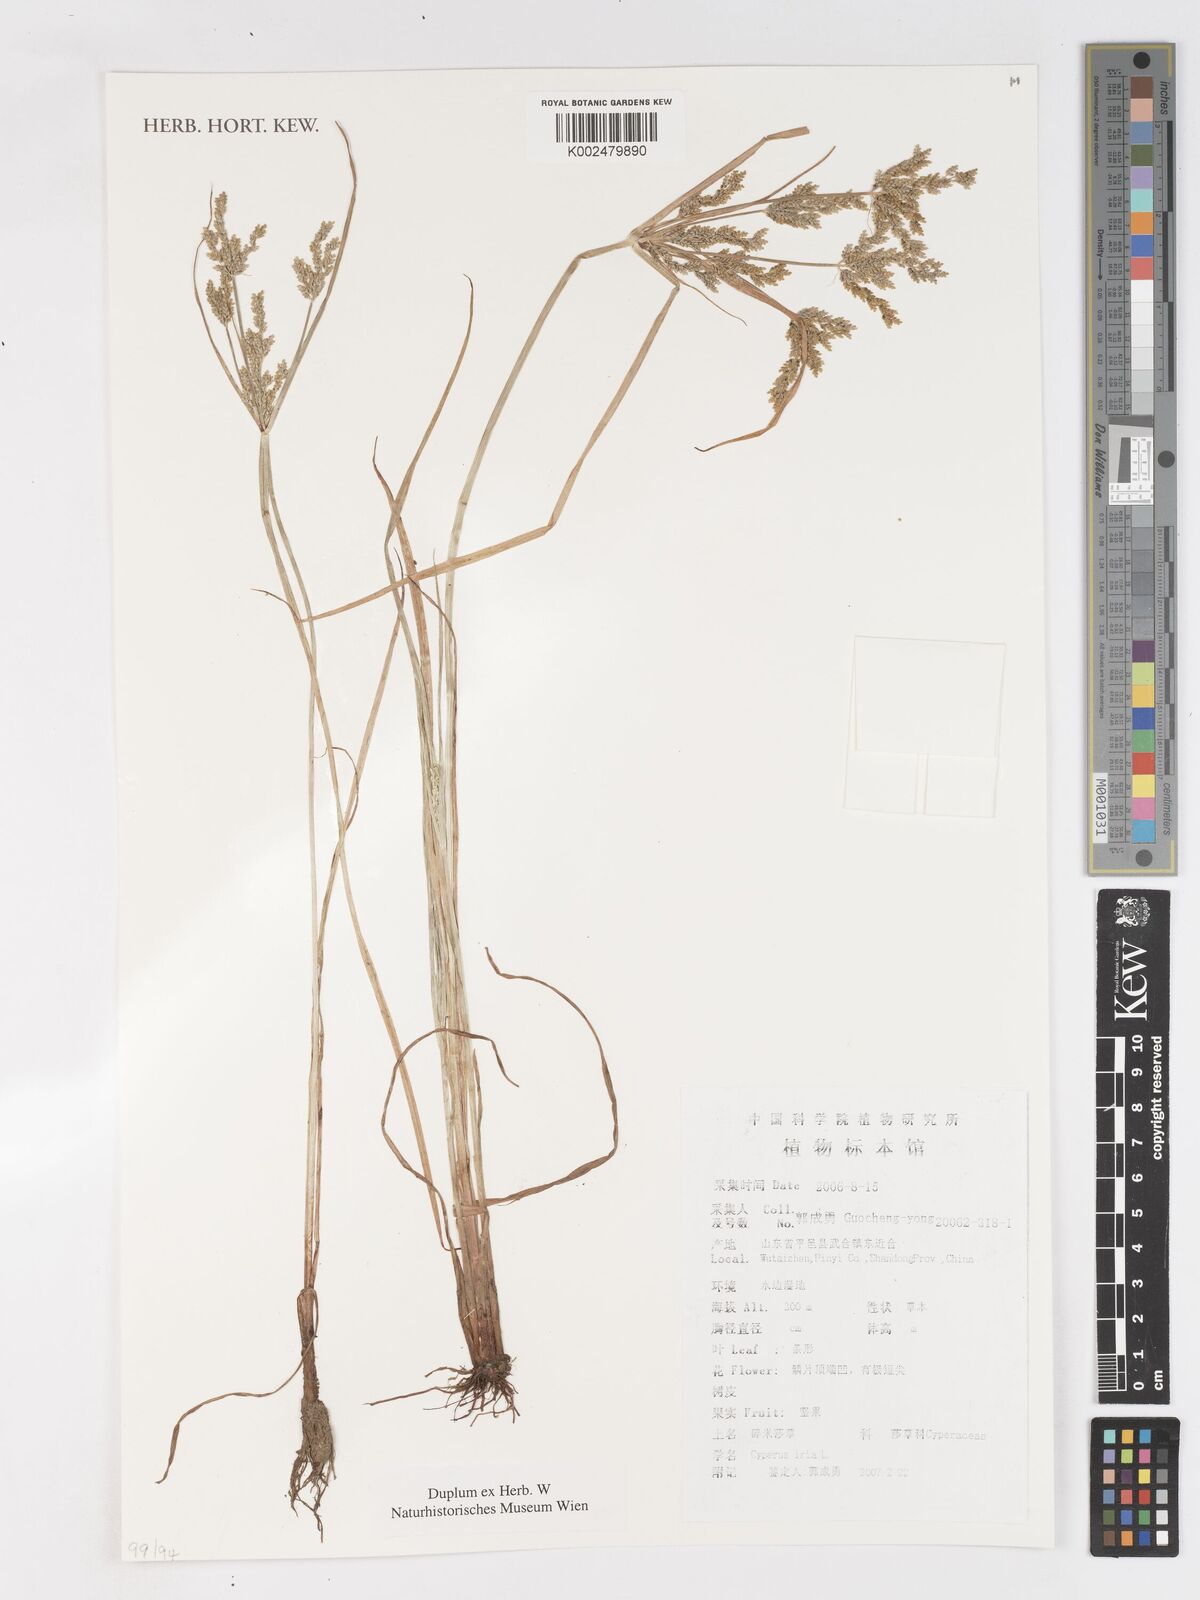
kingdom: Plantae
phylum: Tracheophyta
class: Liliopsida
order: Poales
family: Cyperaceae
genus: Cyperus
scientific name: Cyperus iria
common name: Ricefield flatsedge
